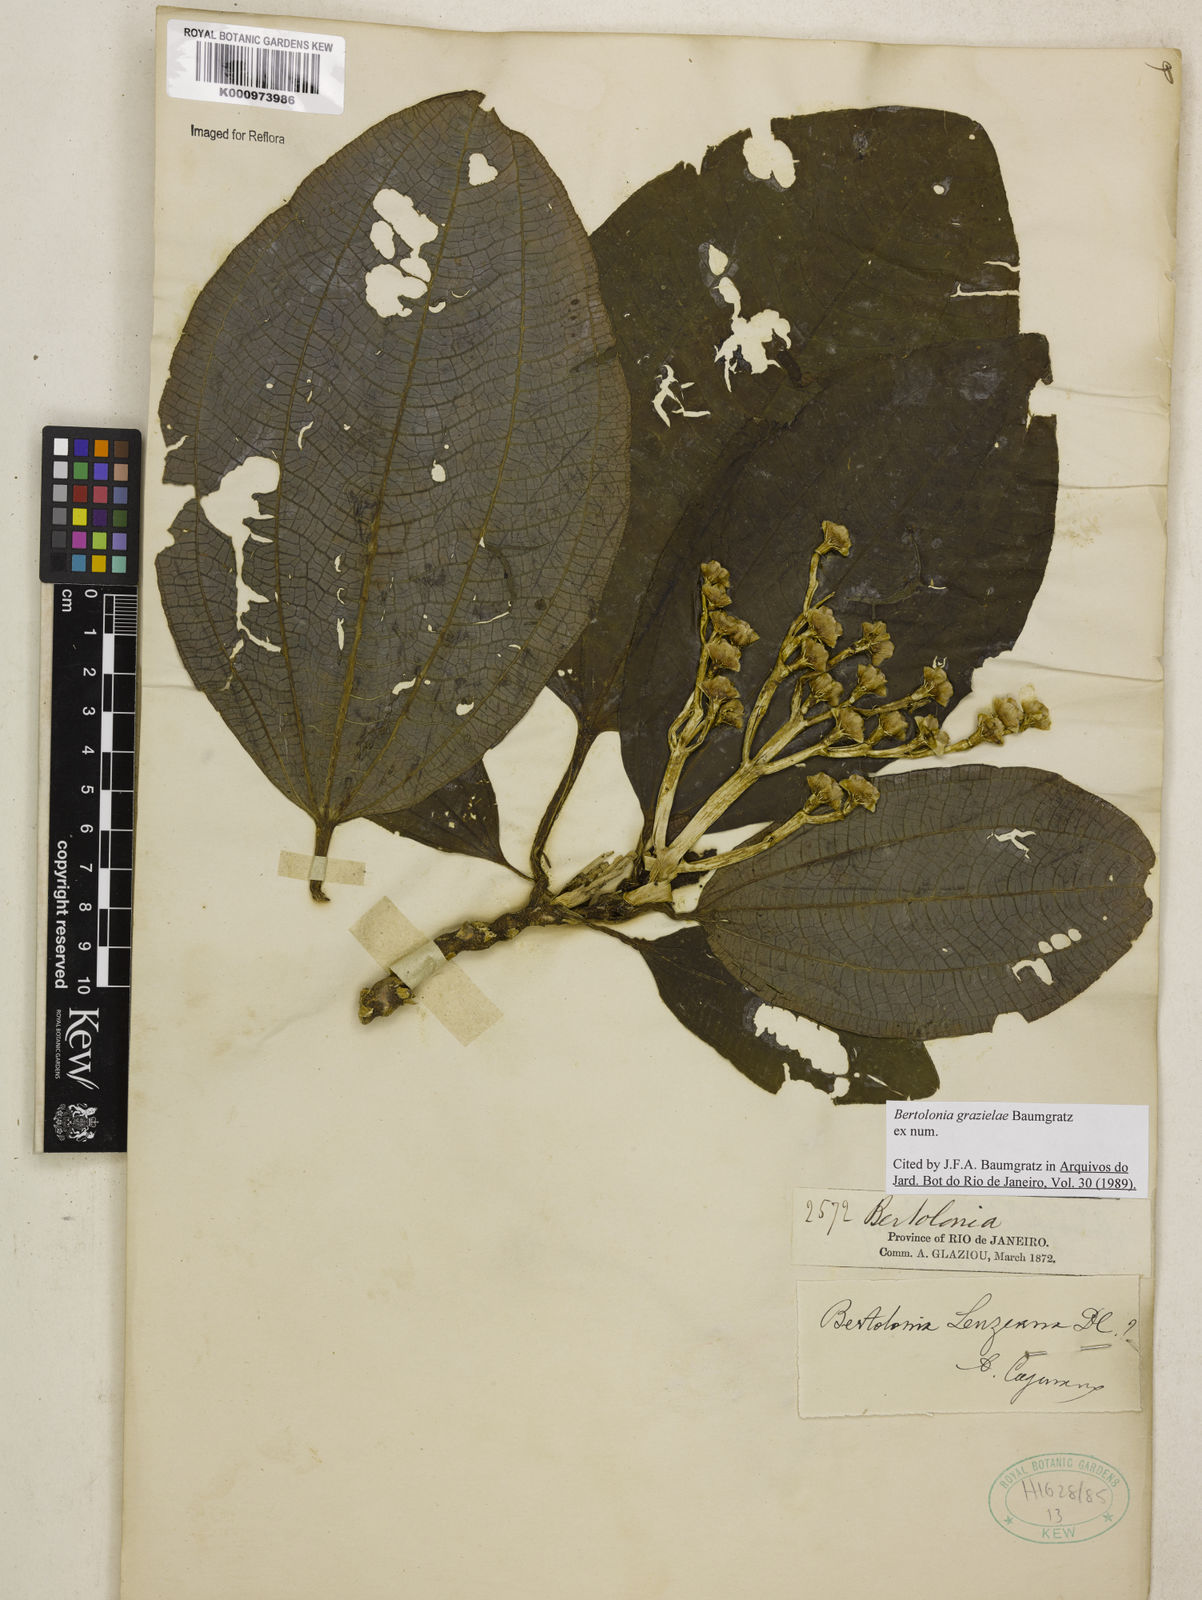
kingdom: Plantae
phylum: Tracheophyta
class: Magnoliopsida
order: Myrtales
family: Melastomataceae
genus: Bertolonia
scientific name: Bertolonia grazielae
